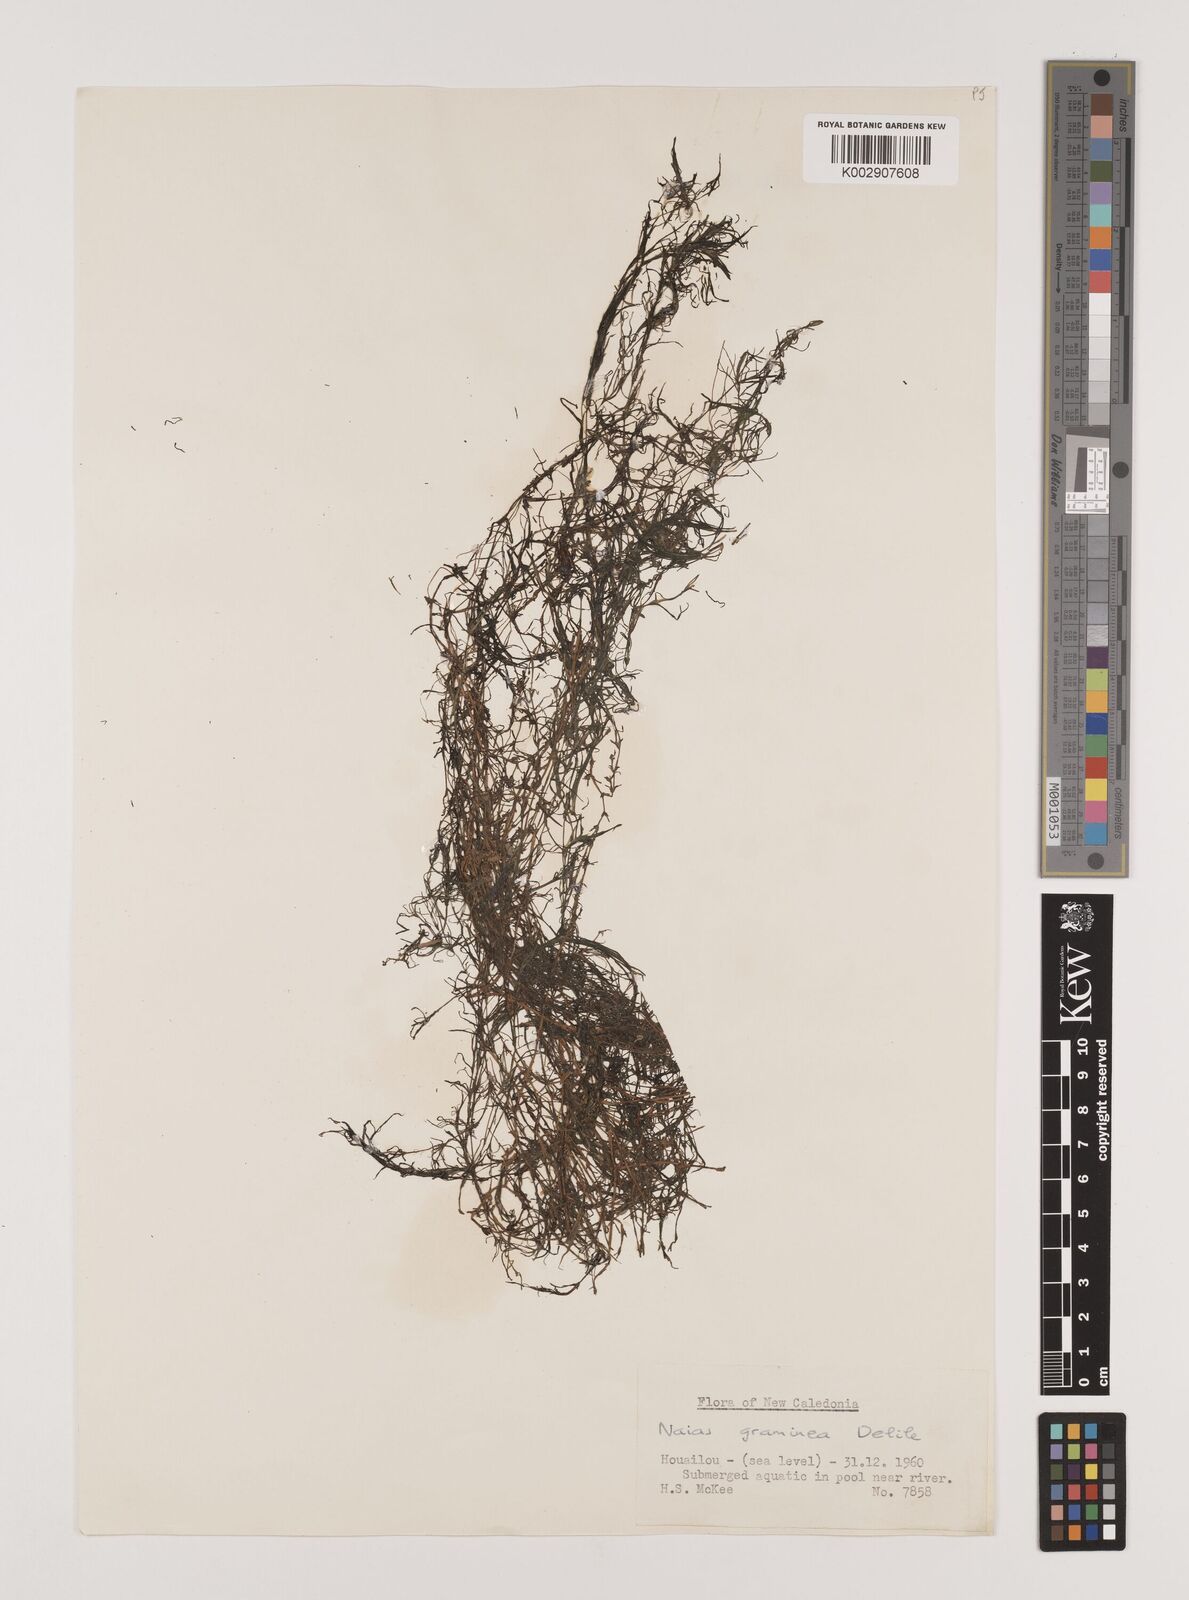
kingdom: Plantae
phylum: Tracheophyta
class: Liliopsida
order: Alismatales
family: Hydrocharitaceae
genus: Najas
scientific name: Najas graminea
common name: Ricefield waternymph
